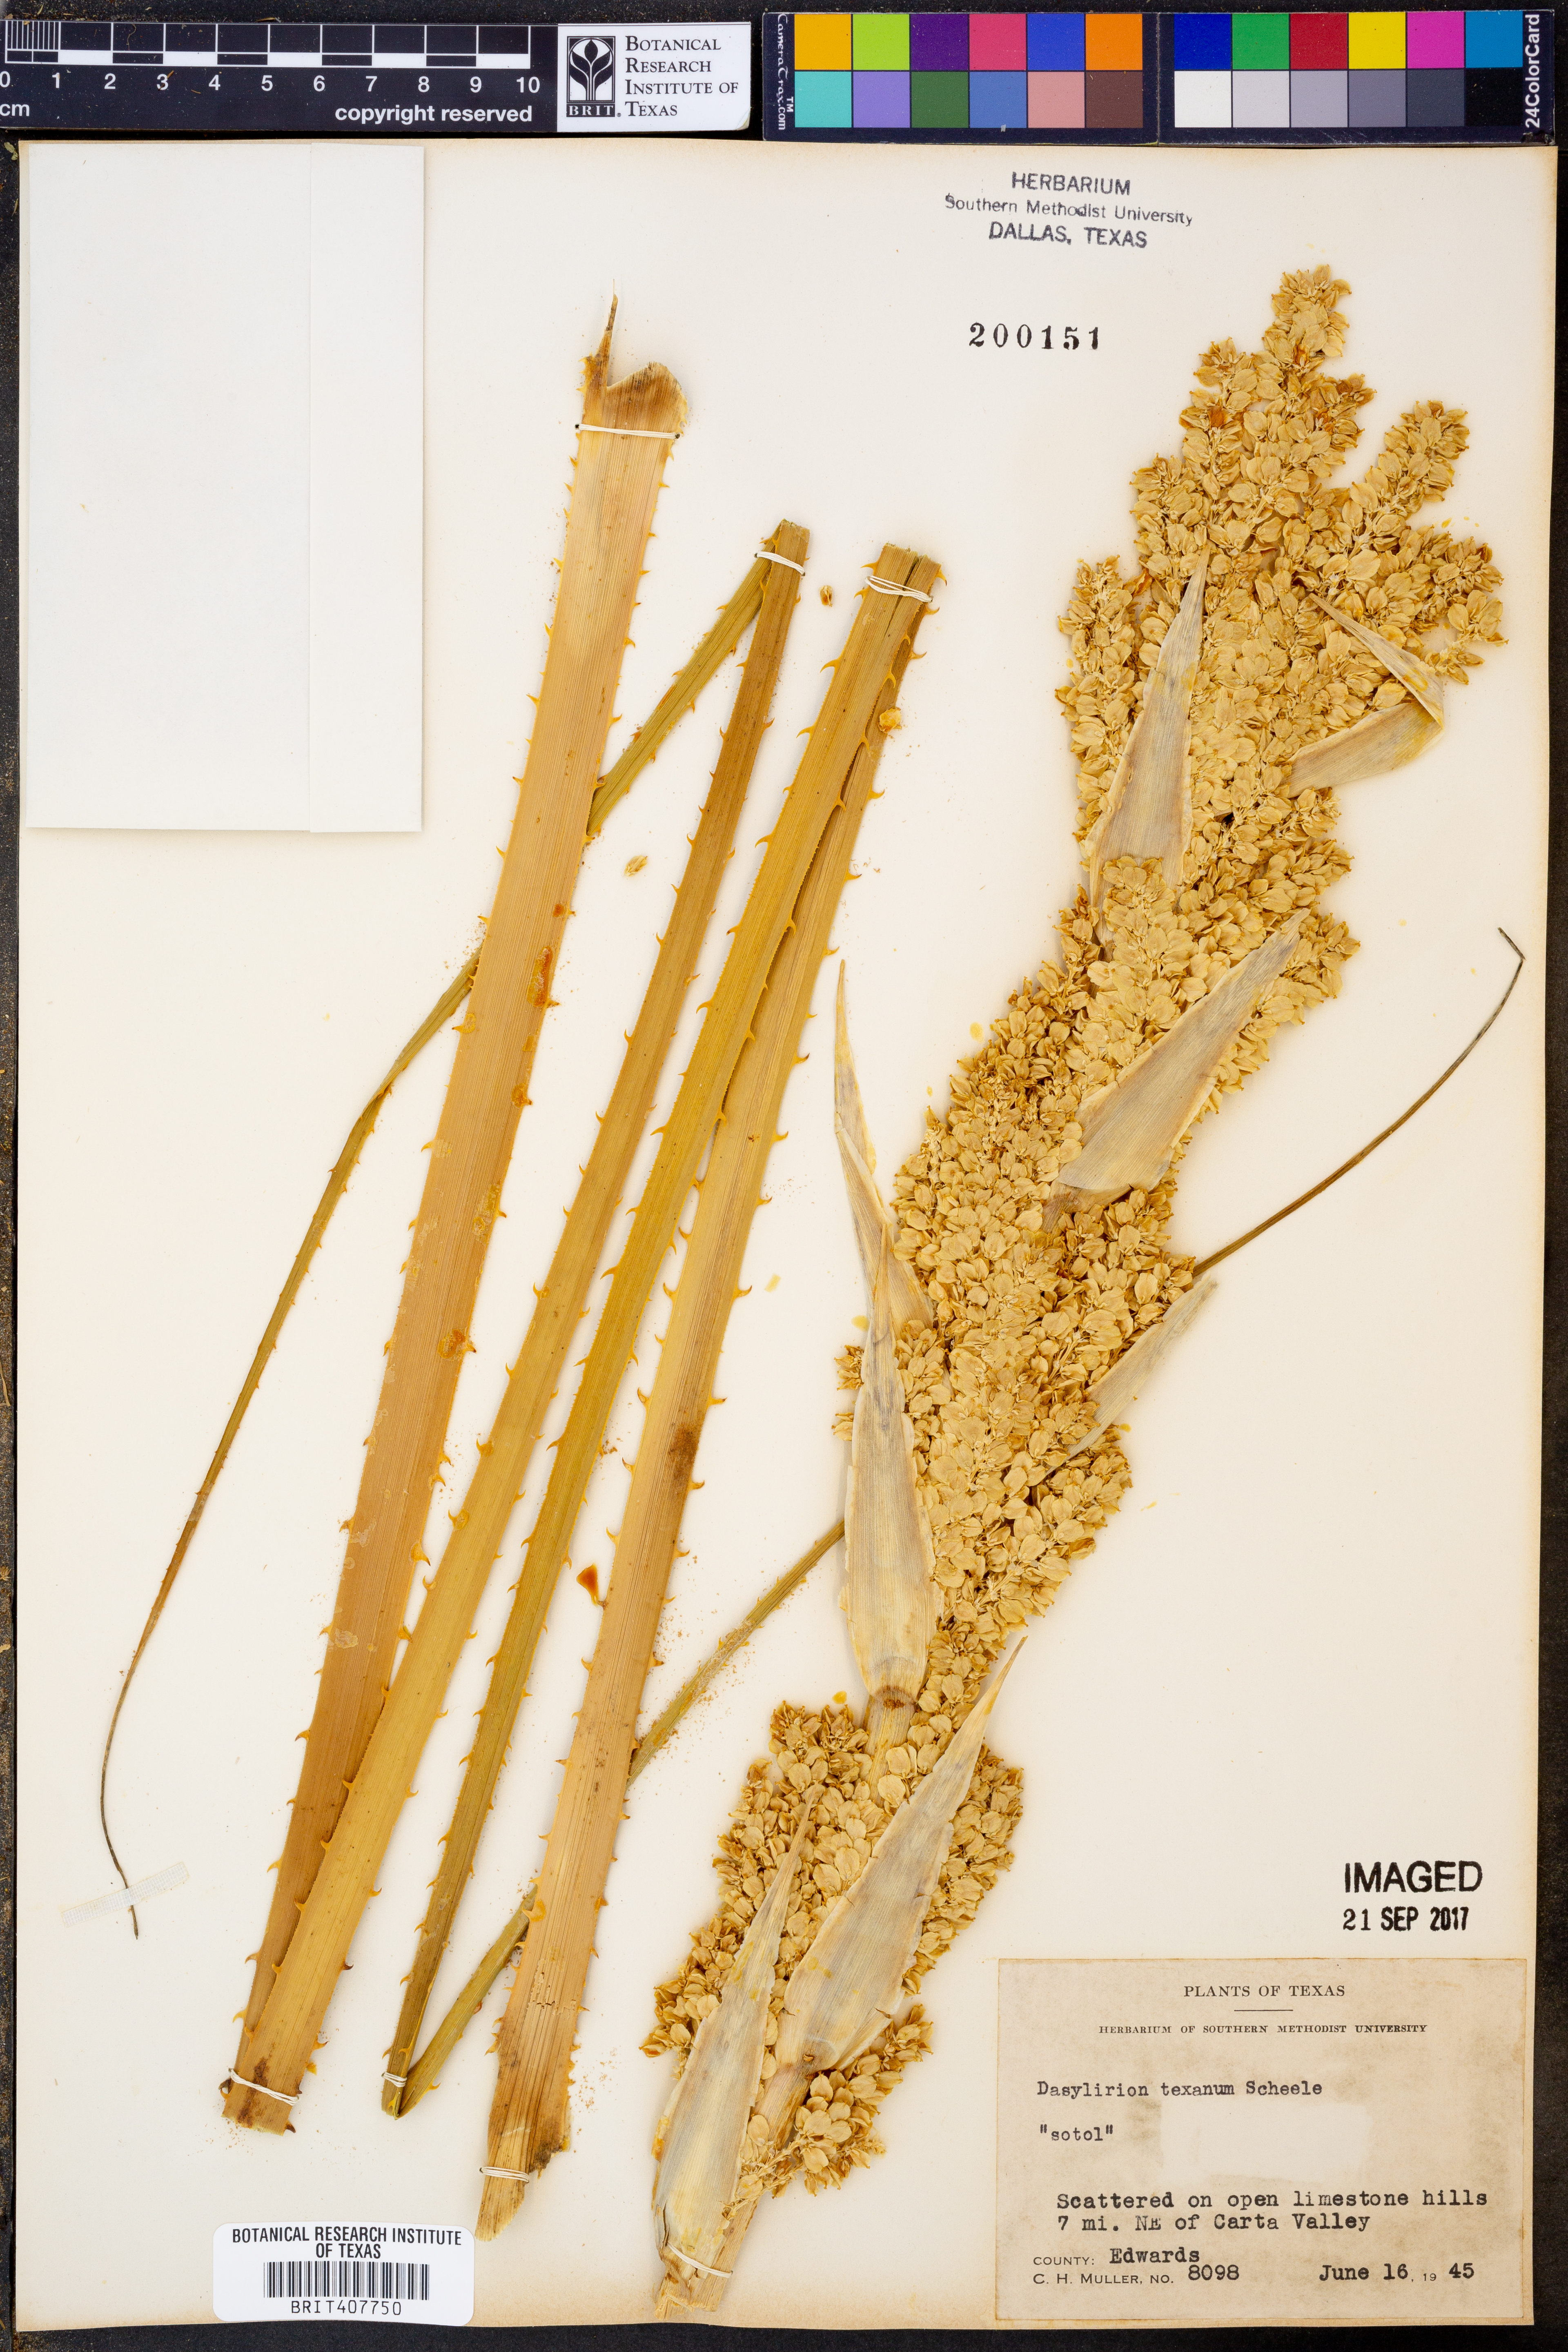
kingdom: Plantae
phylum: Tracheophyta
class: Liliopsida
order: Asparagales
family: Asparagaceae
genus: Dasylirion
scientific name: Dasylirion texanum
